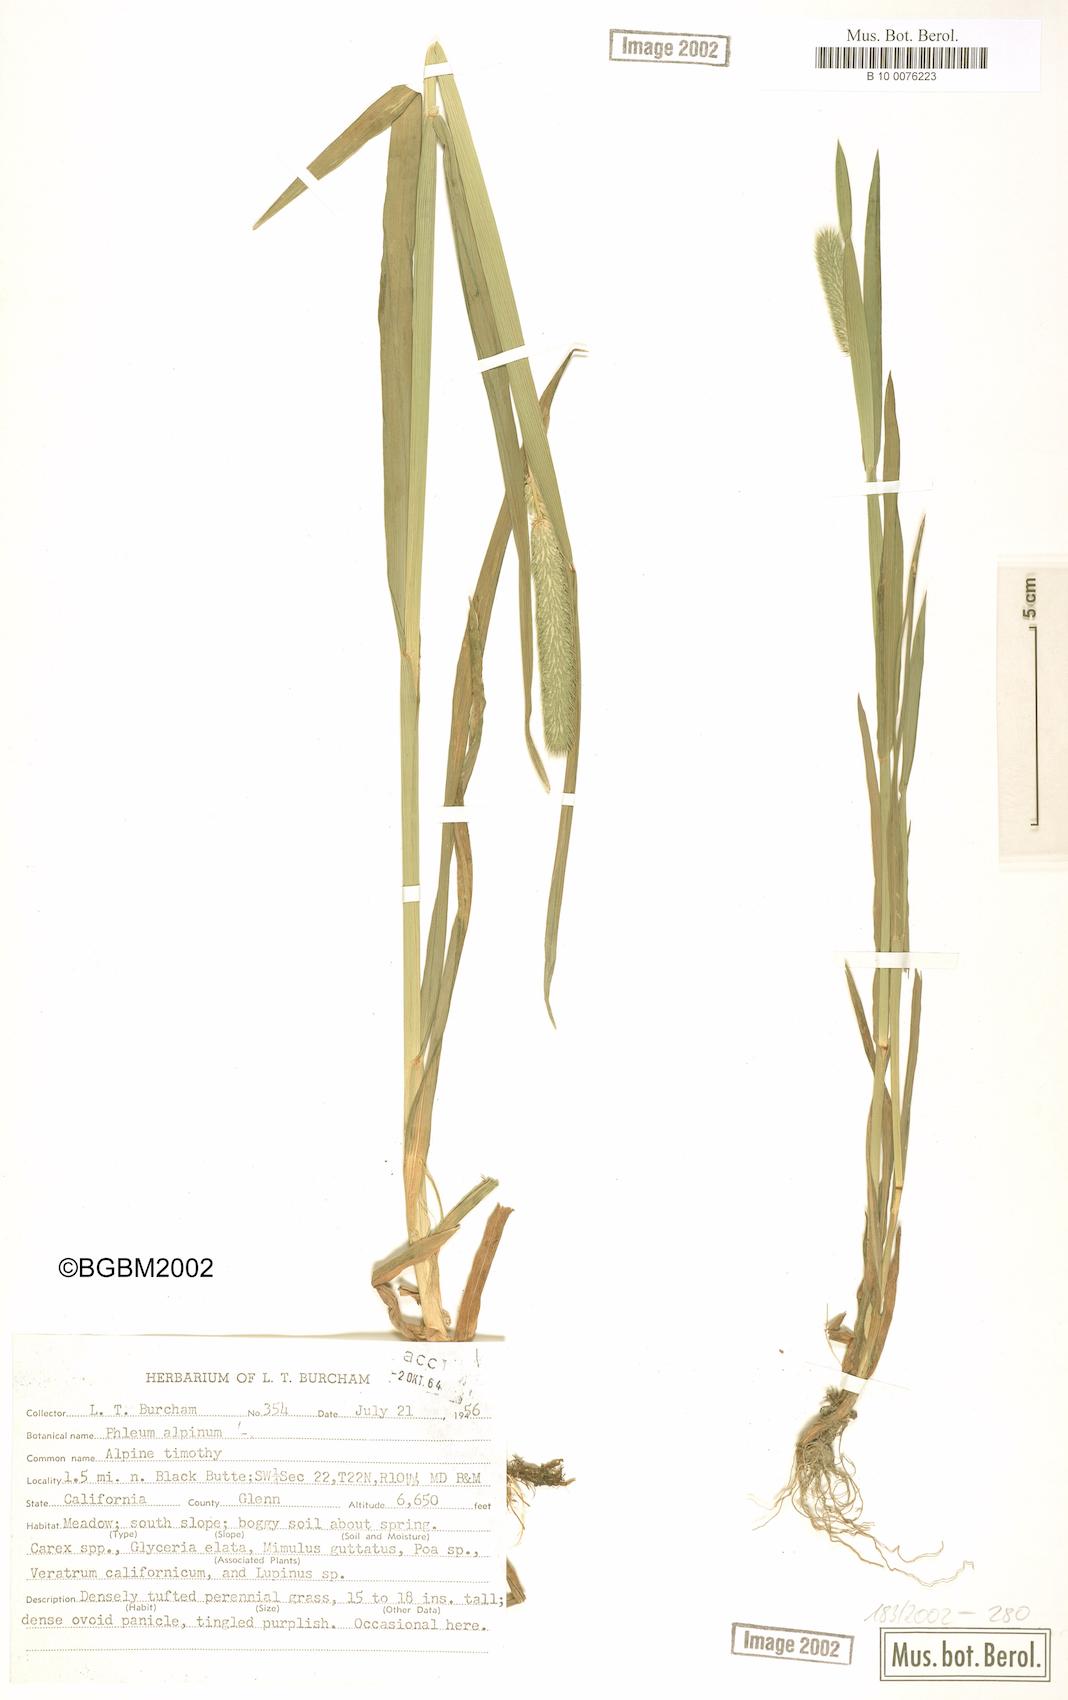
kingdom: Plantae
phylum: Tracheophyta
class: Liliopsida
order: Poales
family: Poaceae
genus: Phleum
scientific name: Phleum alpinum
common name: Alpine cat's-tail
